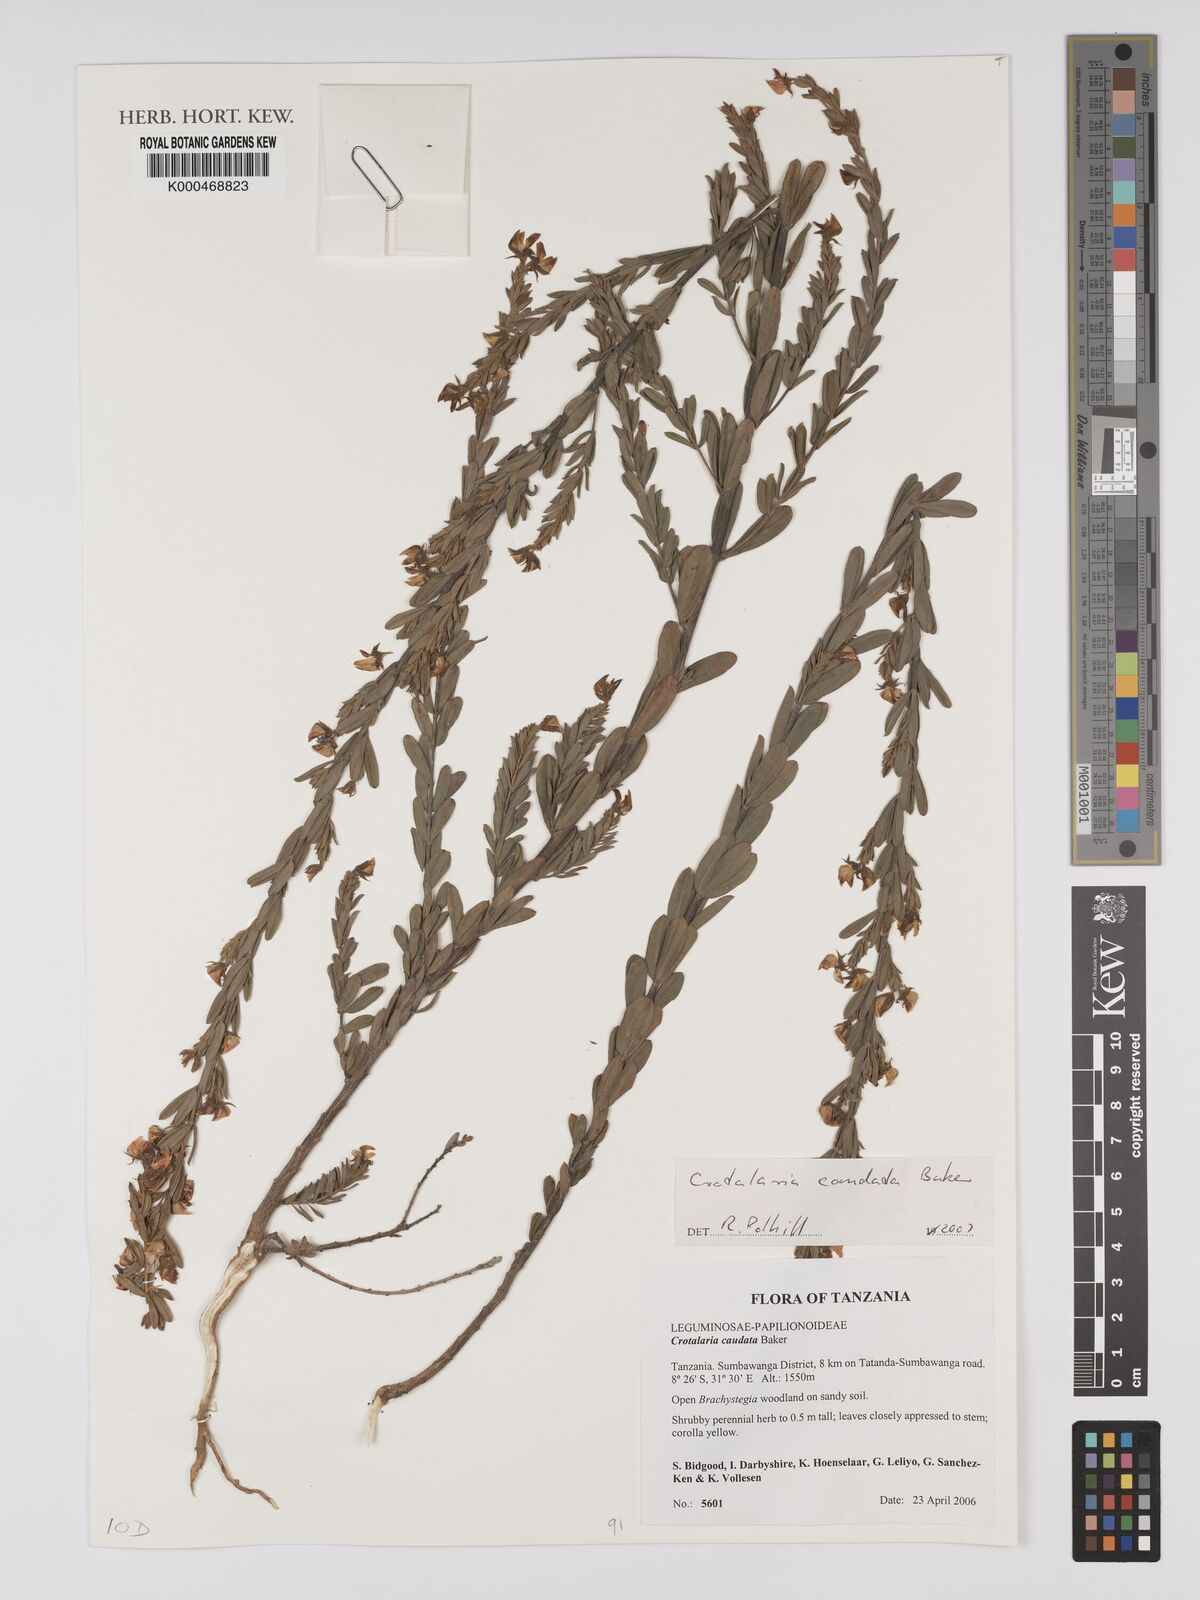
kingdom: Plantae
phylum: Tracheophyta
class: Magnoliopsida
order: Fabales
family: Fabaceae
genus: Crotalaria
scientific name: Crotalaria caudata
